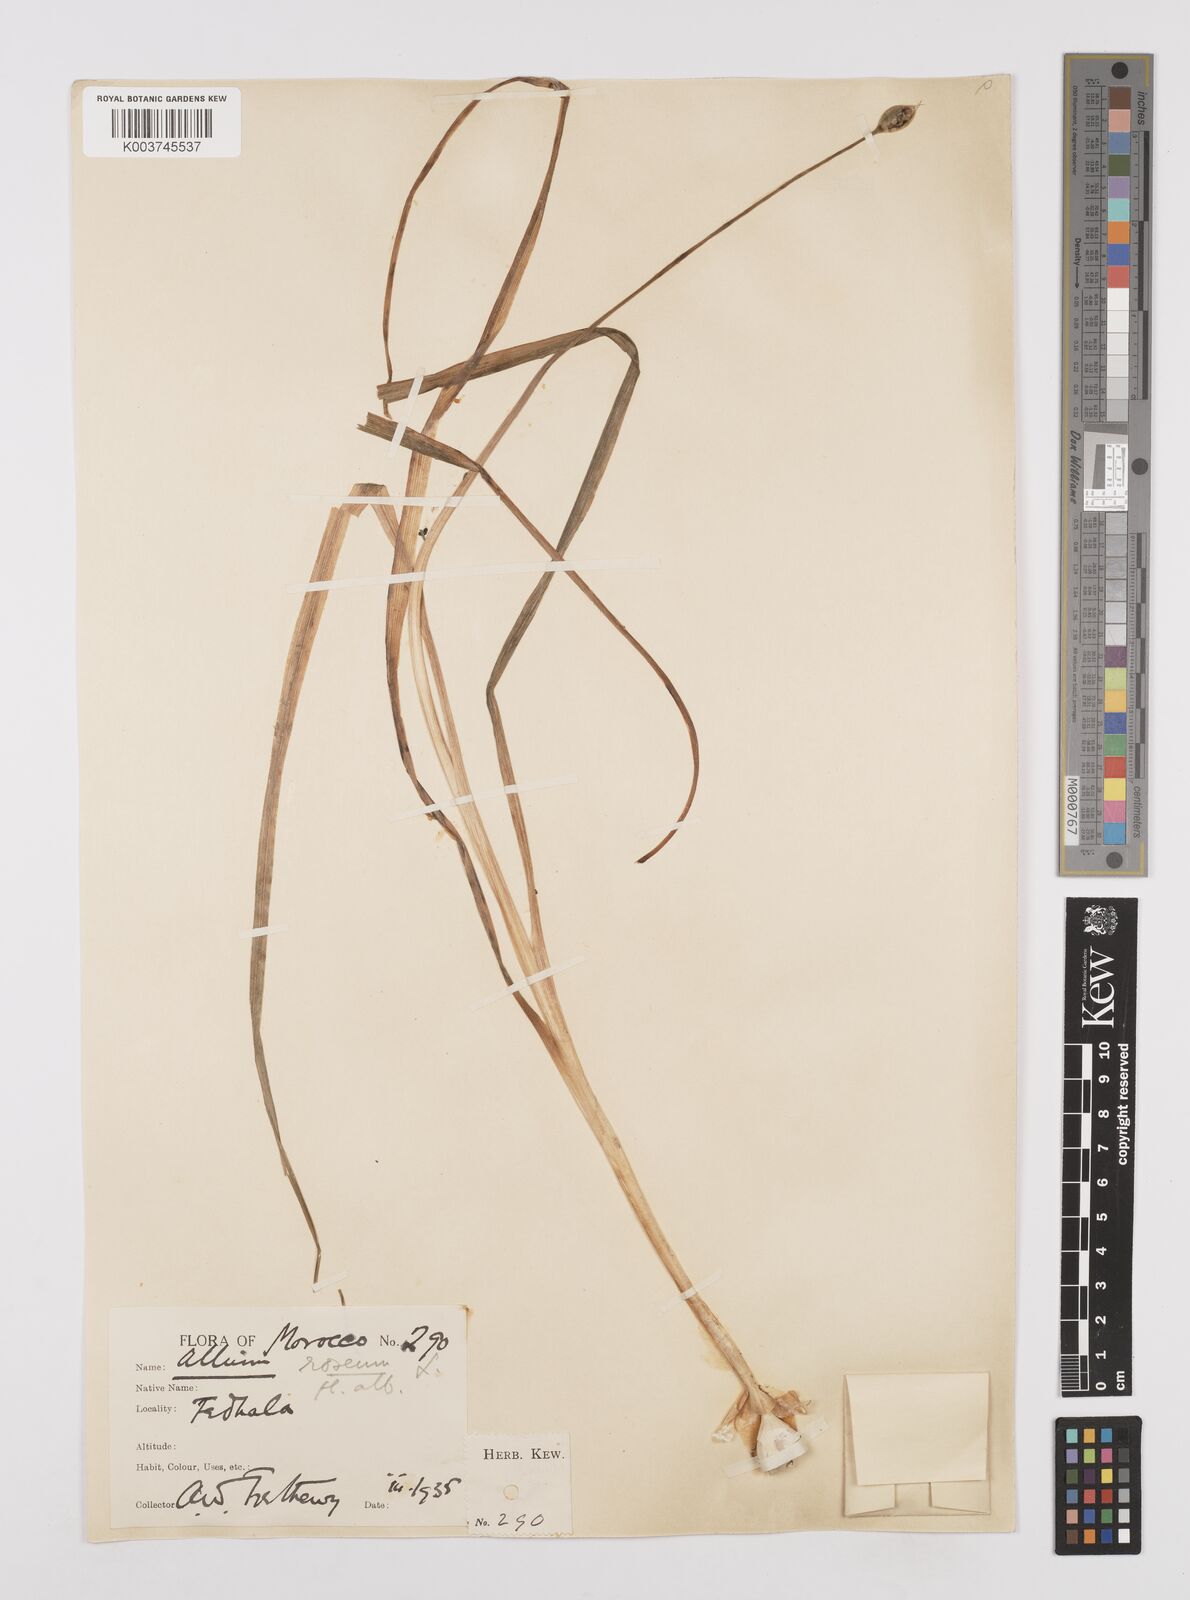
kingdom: Plantae
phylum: Tracheophyta
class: Liliopsida
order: Asparagales
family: Amaryllidaceae
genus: Allium
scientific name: Allium roseum
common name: Rosy garlic
